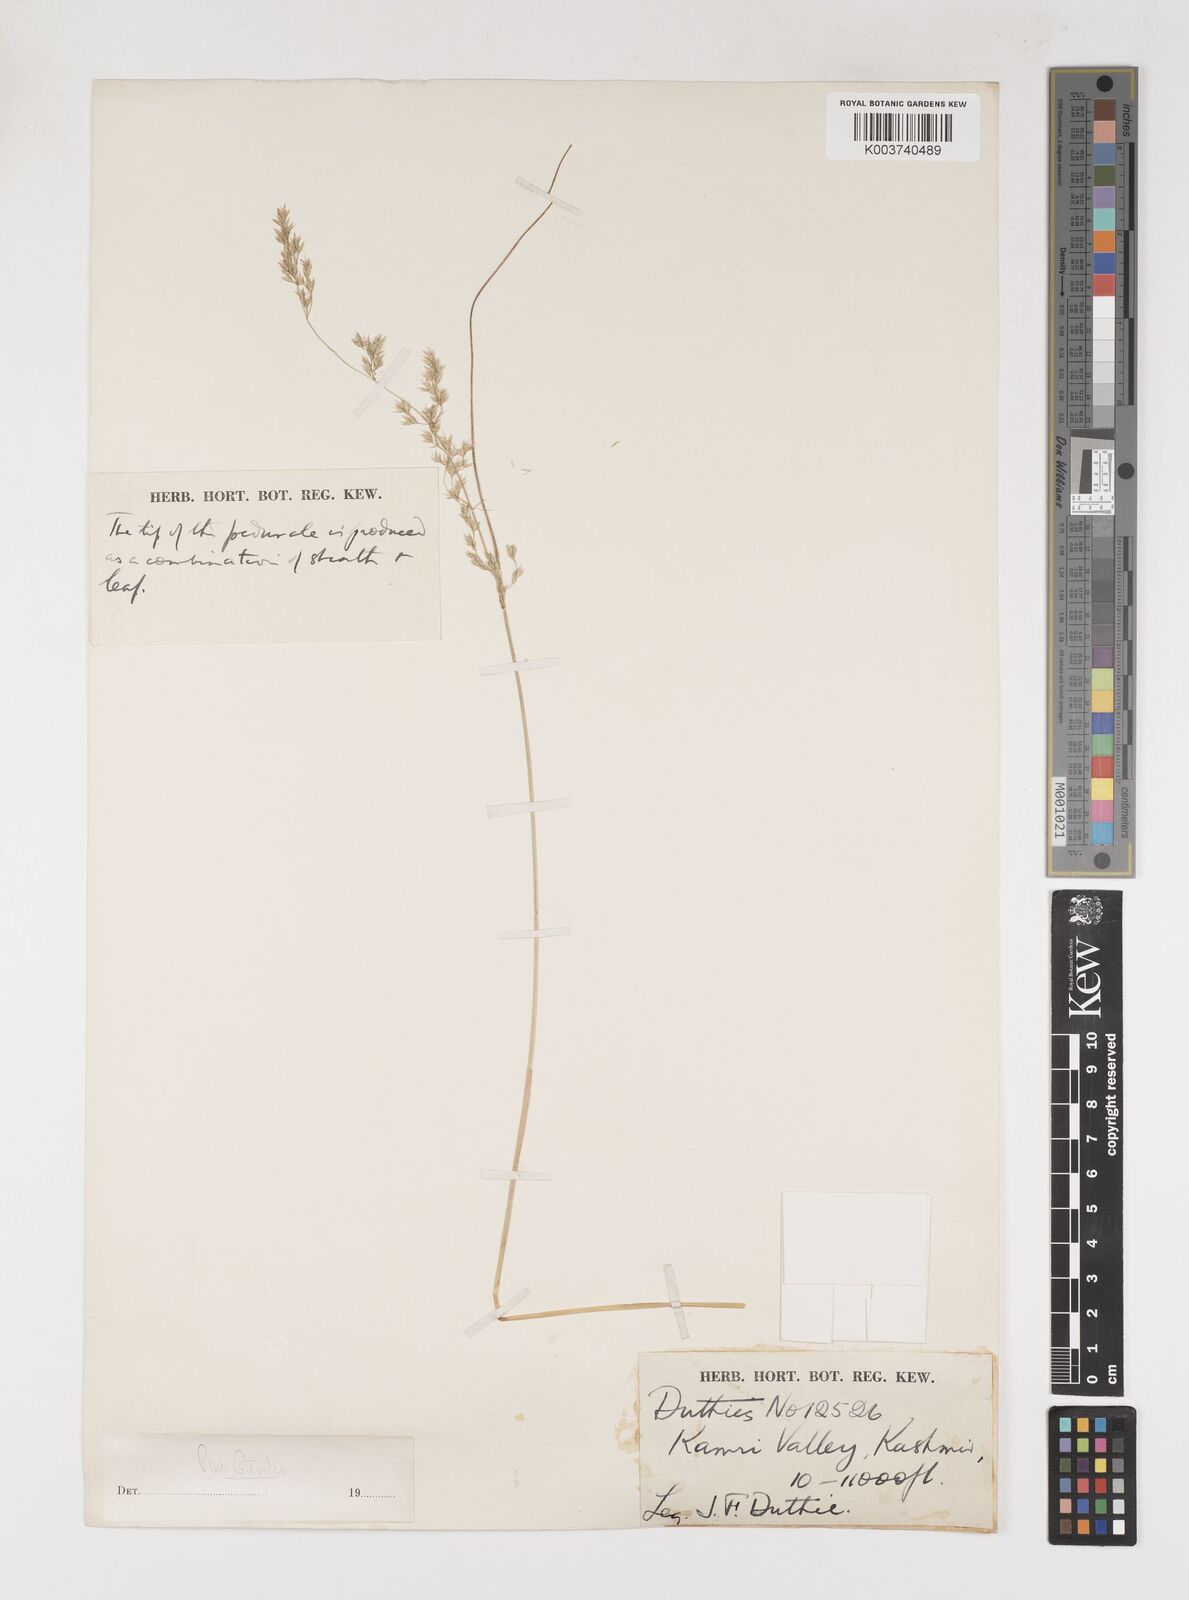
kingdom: Plantae
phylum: Tracheophyta
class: Liliopsida
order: Poales
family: Poaceae
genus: Poa
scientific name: Poa sterilis
